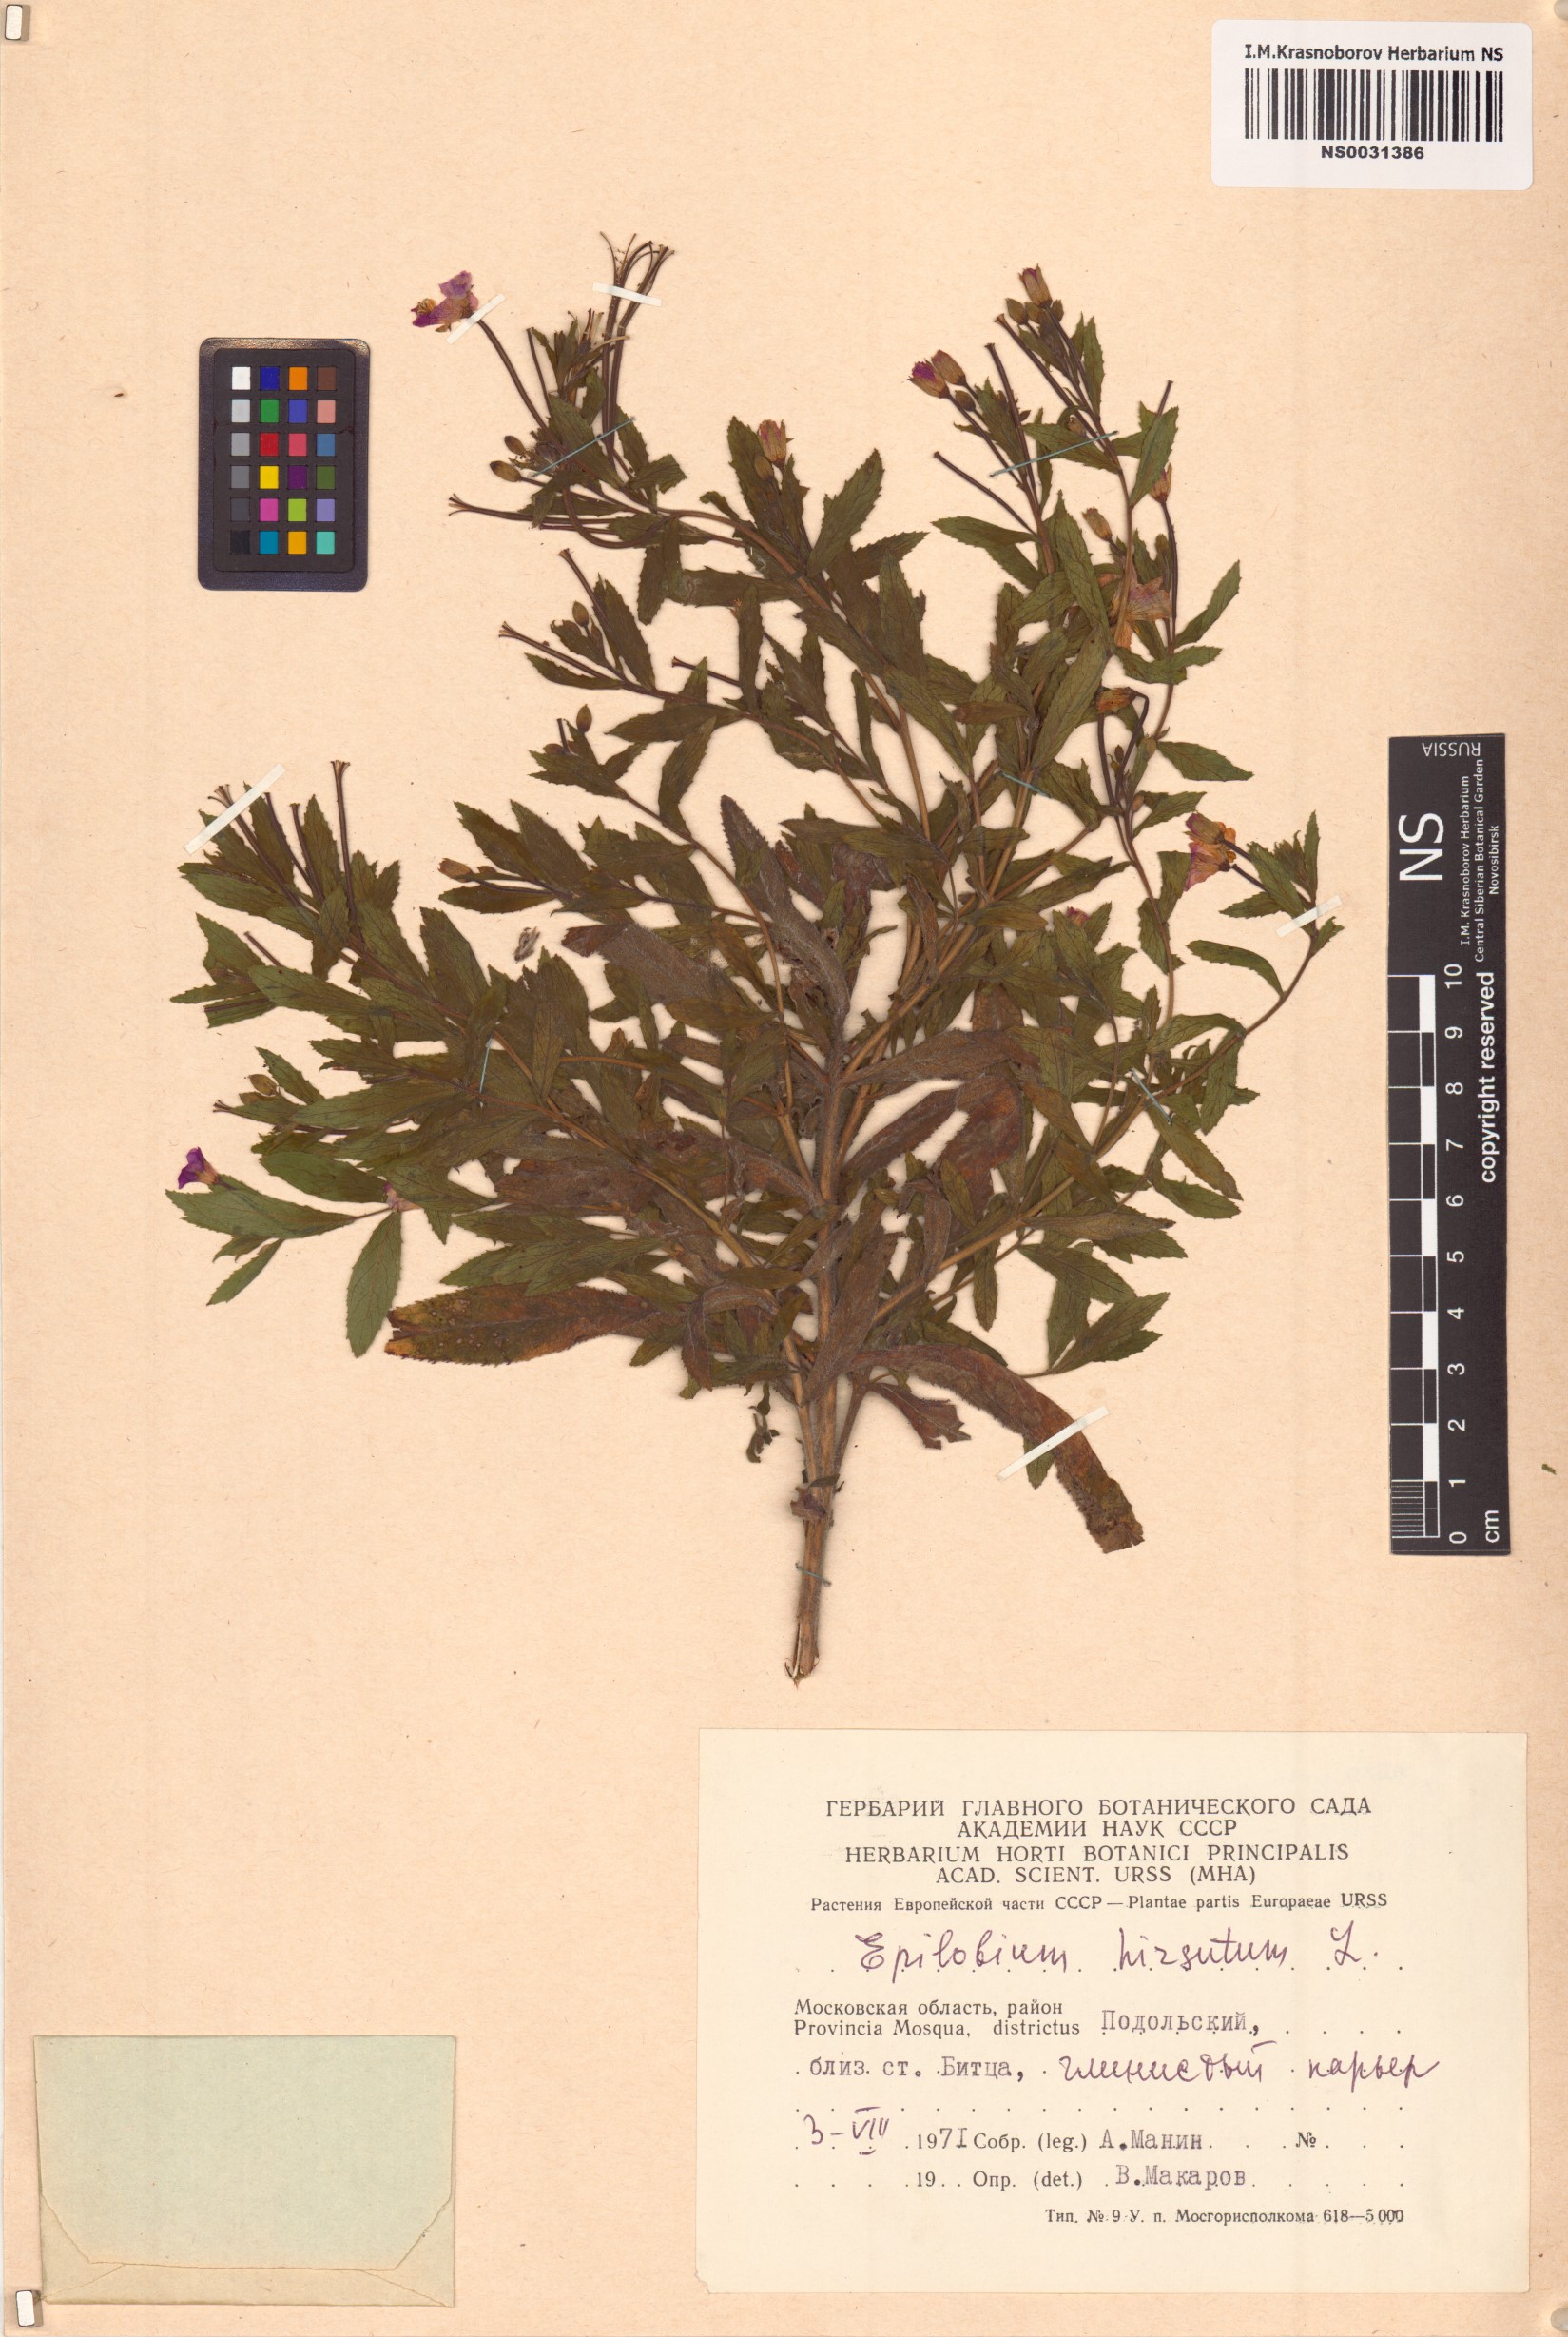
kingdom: Plantae
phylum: Tracheophyta
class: Magnoliopsida
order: Myrtales
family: Onagraceae
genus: Epilobium
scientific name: Epilobium hirsutum
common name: Great willowherb
